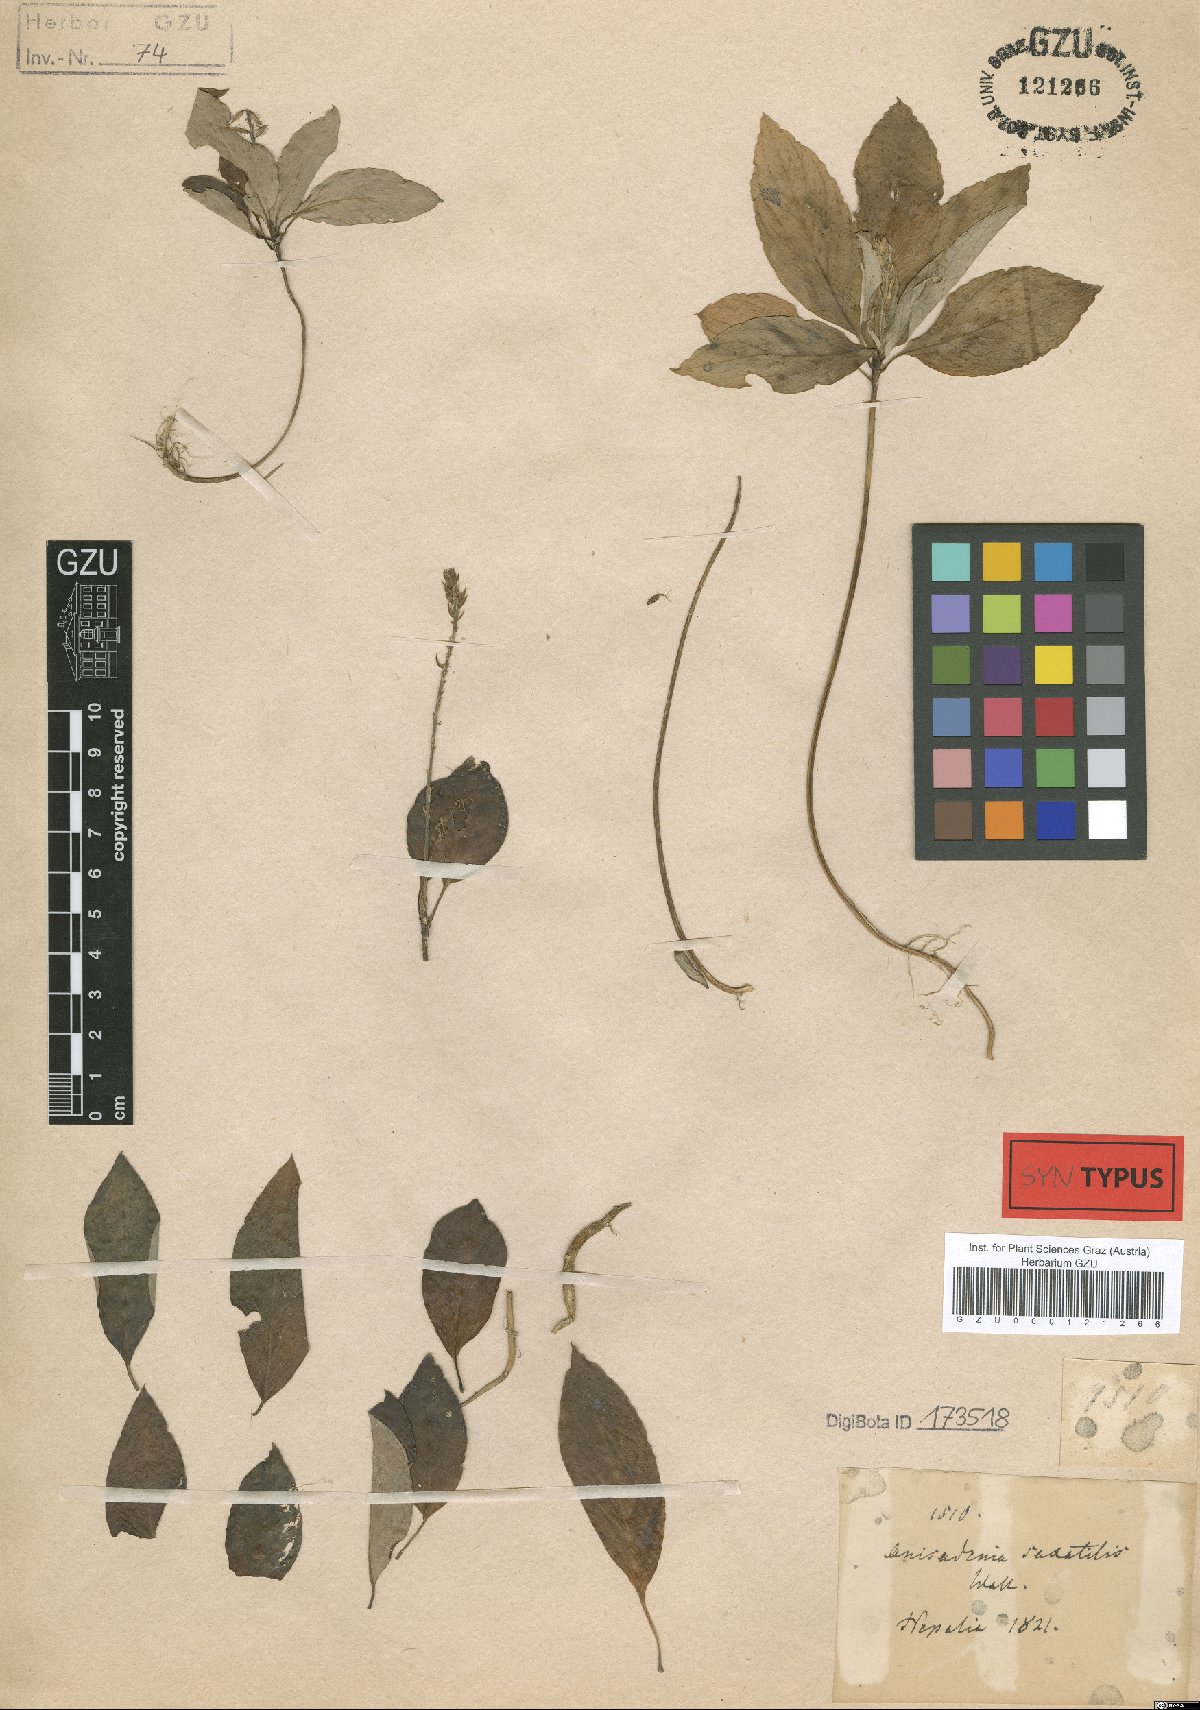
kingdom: Plantae
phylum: Tracheophyta
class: Magnoliopsida
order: Malpighiales
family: Linaceae
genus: Anisadenia
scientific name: Anisadenia saxatilis
